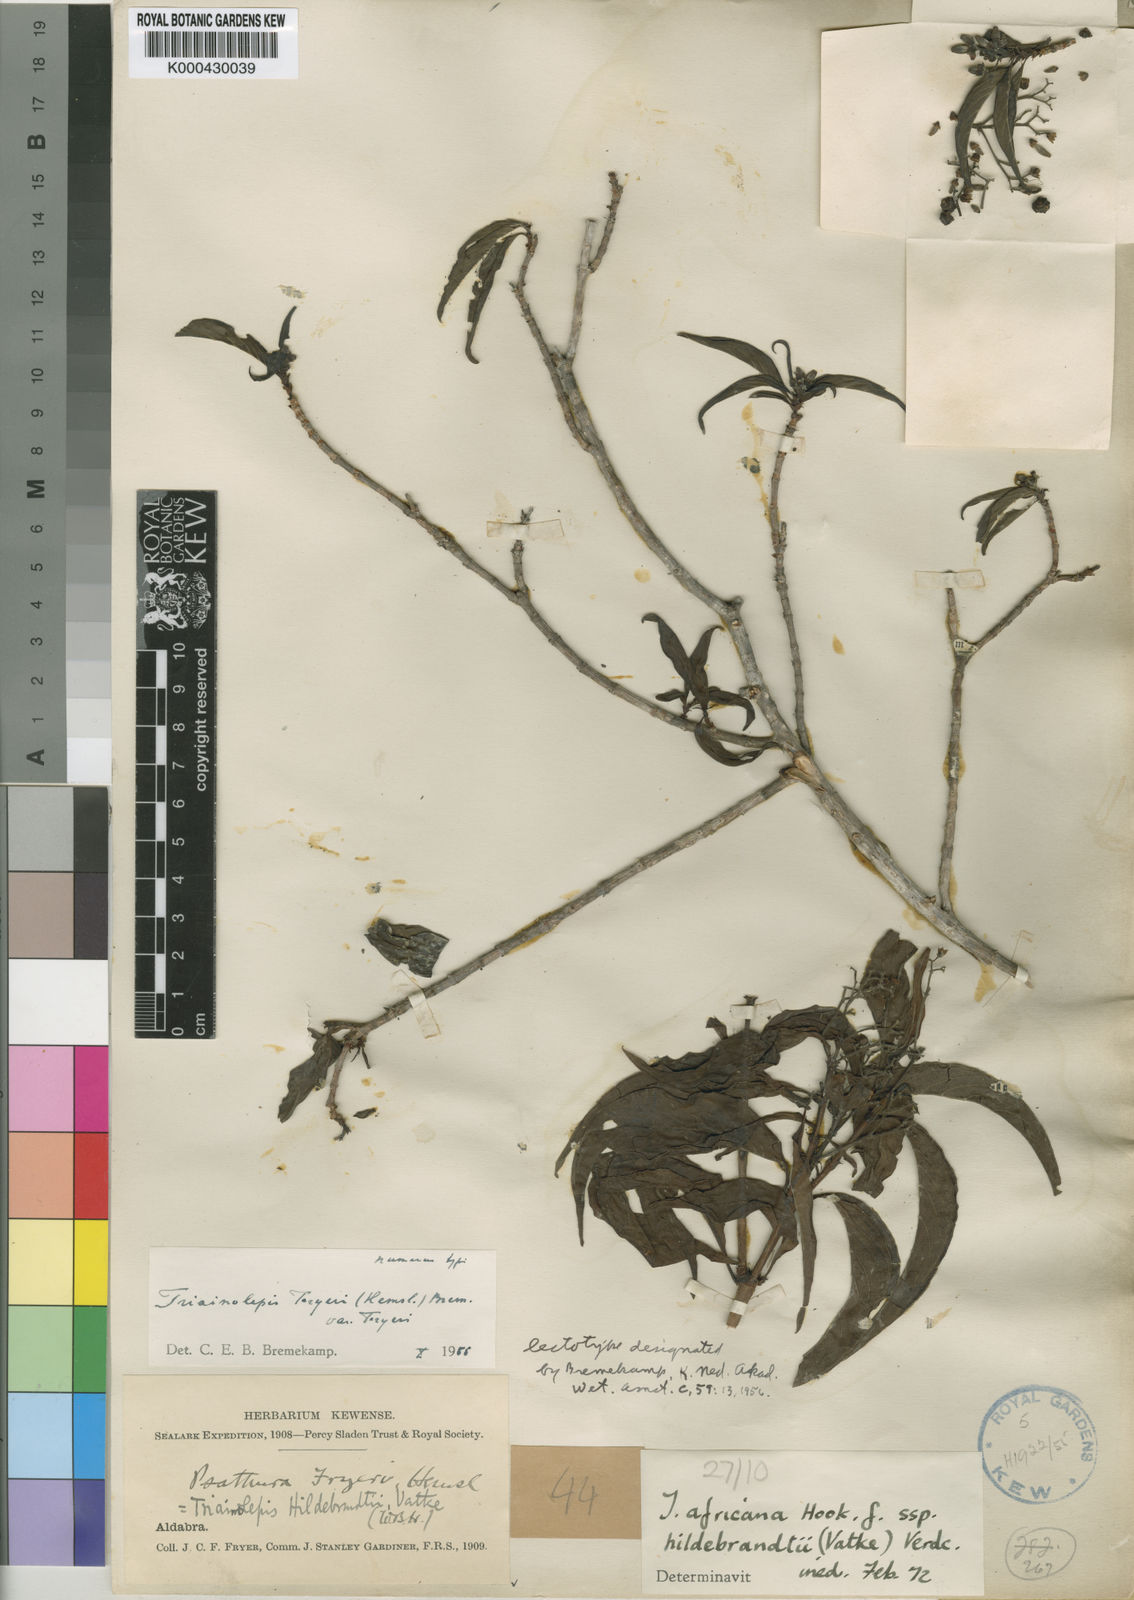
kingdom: Plantae
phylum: Tracheophyta
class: Magnoliopsida
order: Gentianales
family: Rubiaceae
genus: Triainolepis
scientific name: Triainolepis africana
